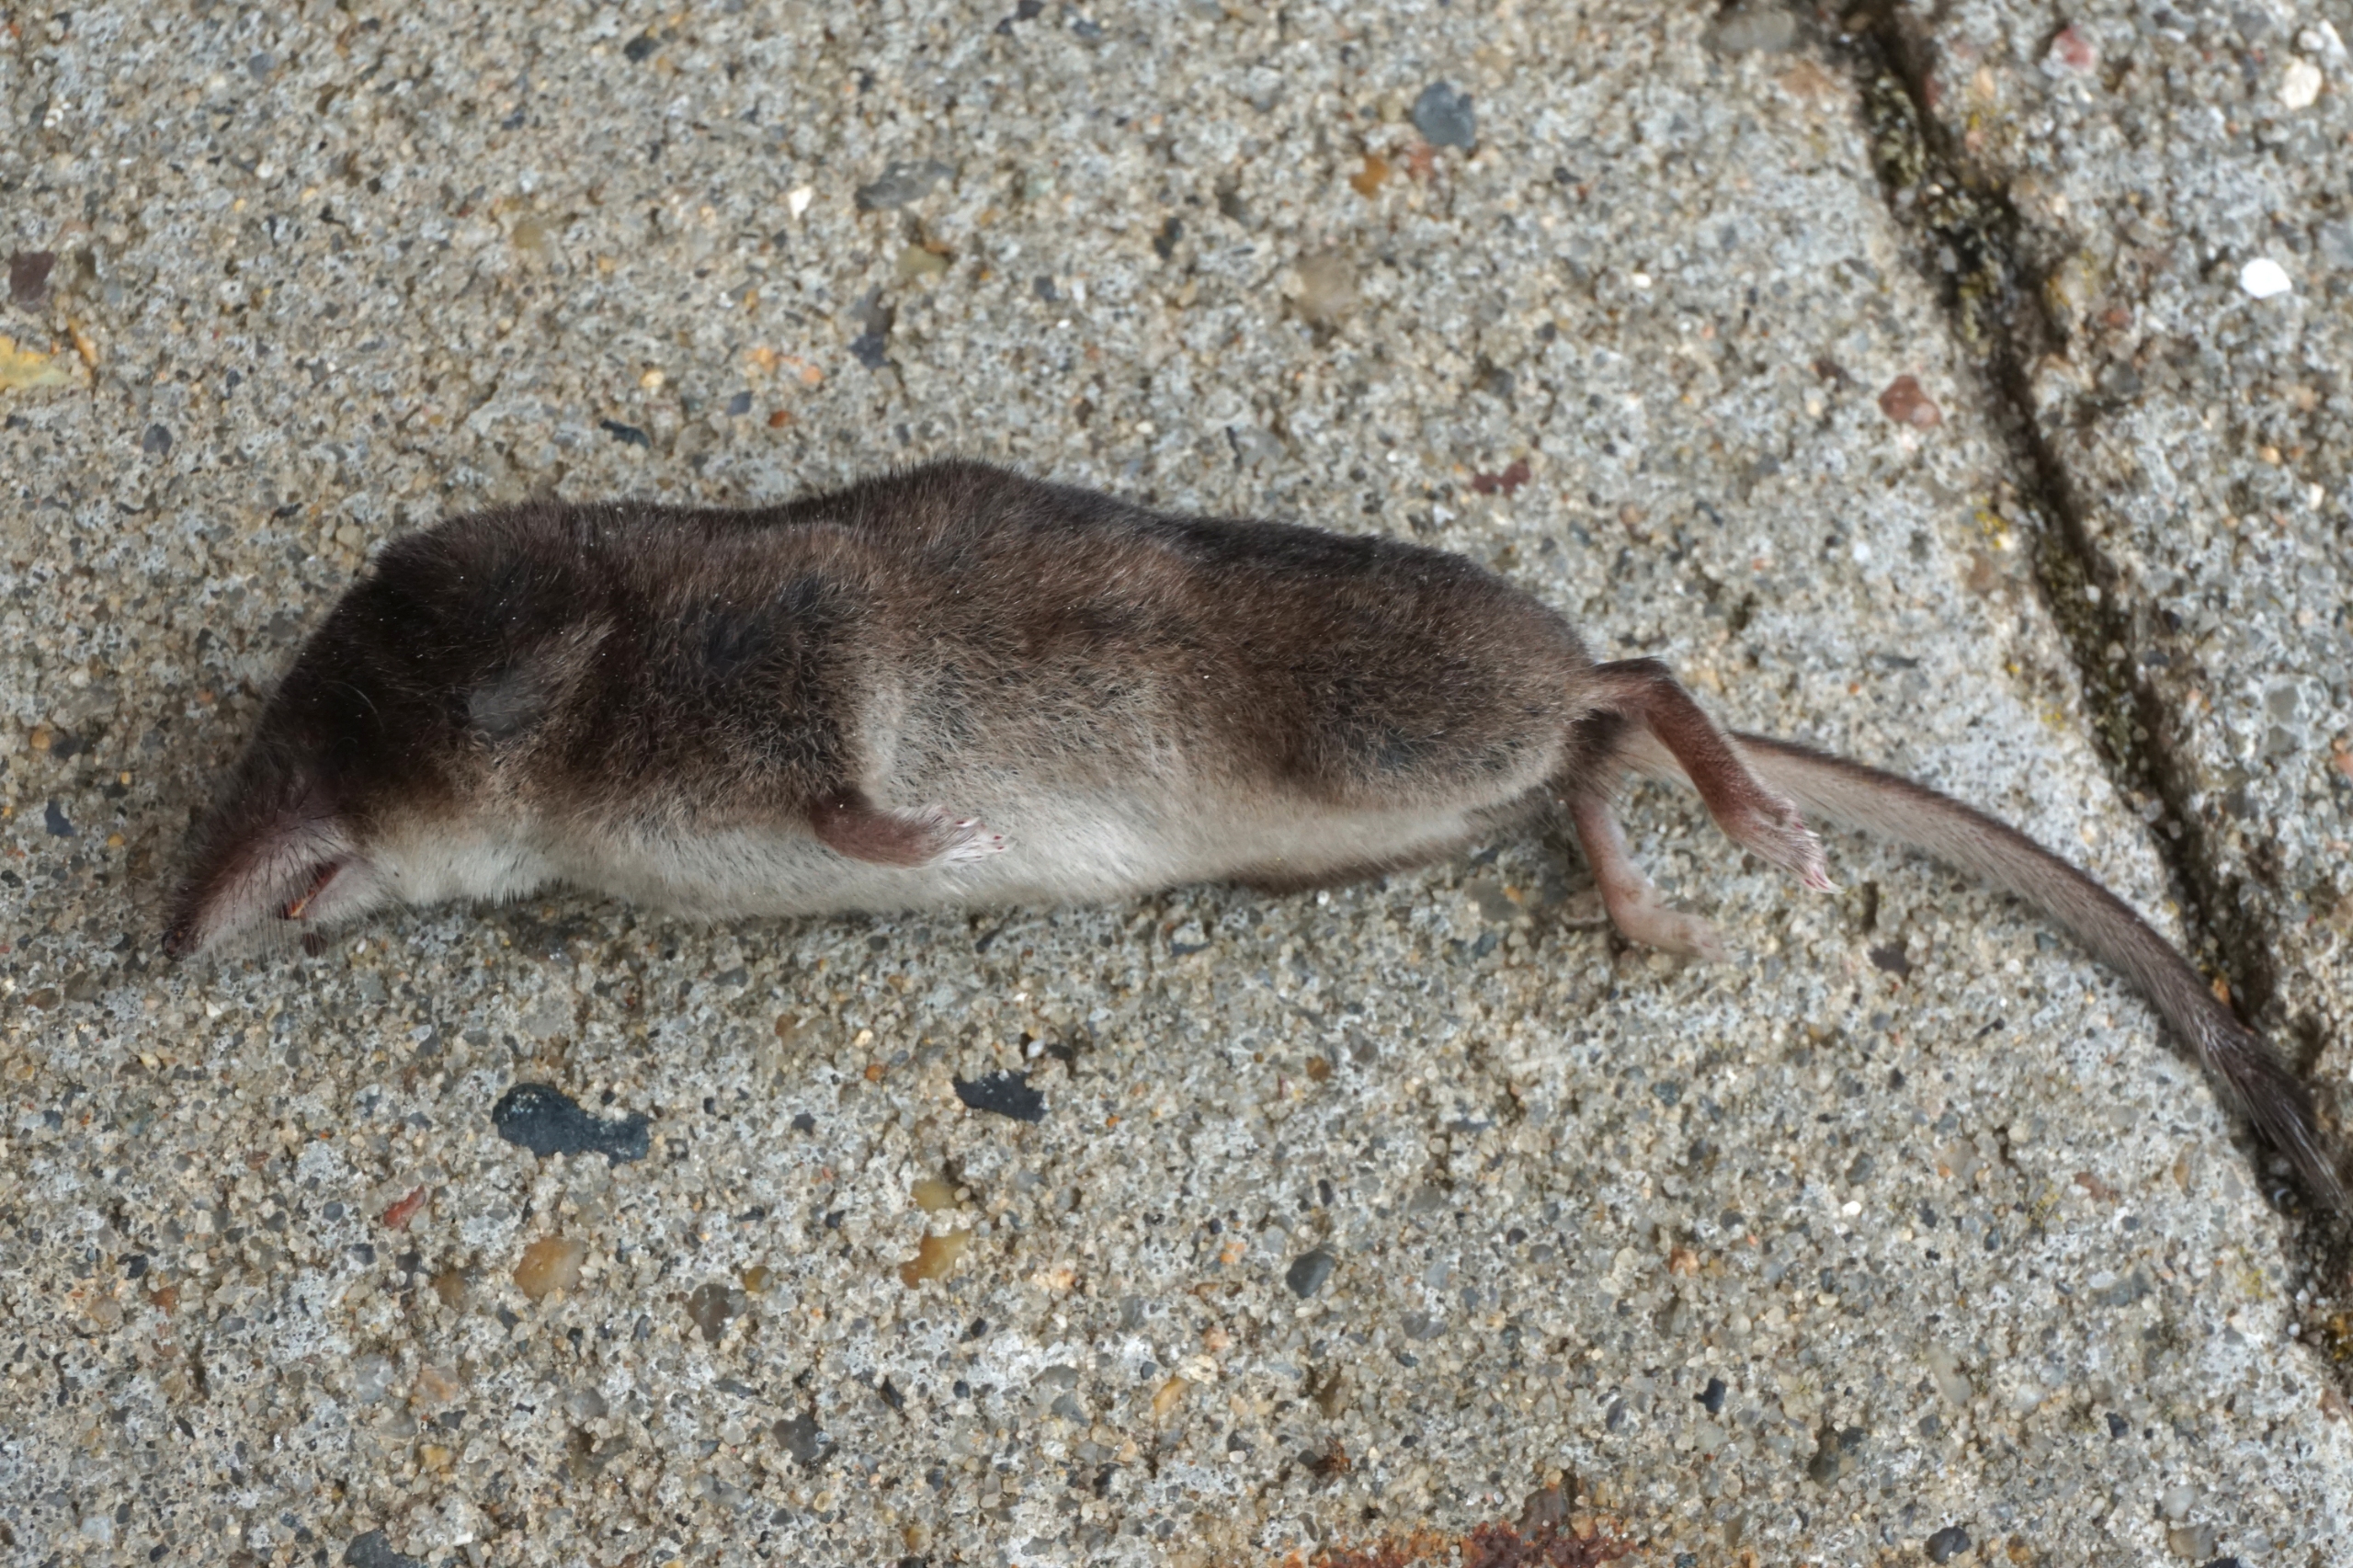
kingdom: Animalia
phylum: Chordata
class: Mammalia
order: Soricomorpha
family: Soricidae
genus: Sorex
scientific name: Sorex araneus
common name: Almindelig spidsmus
